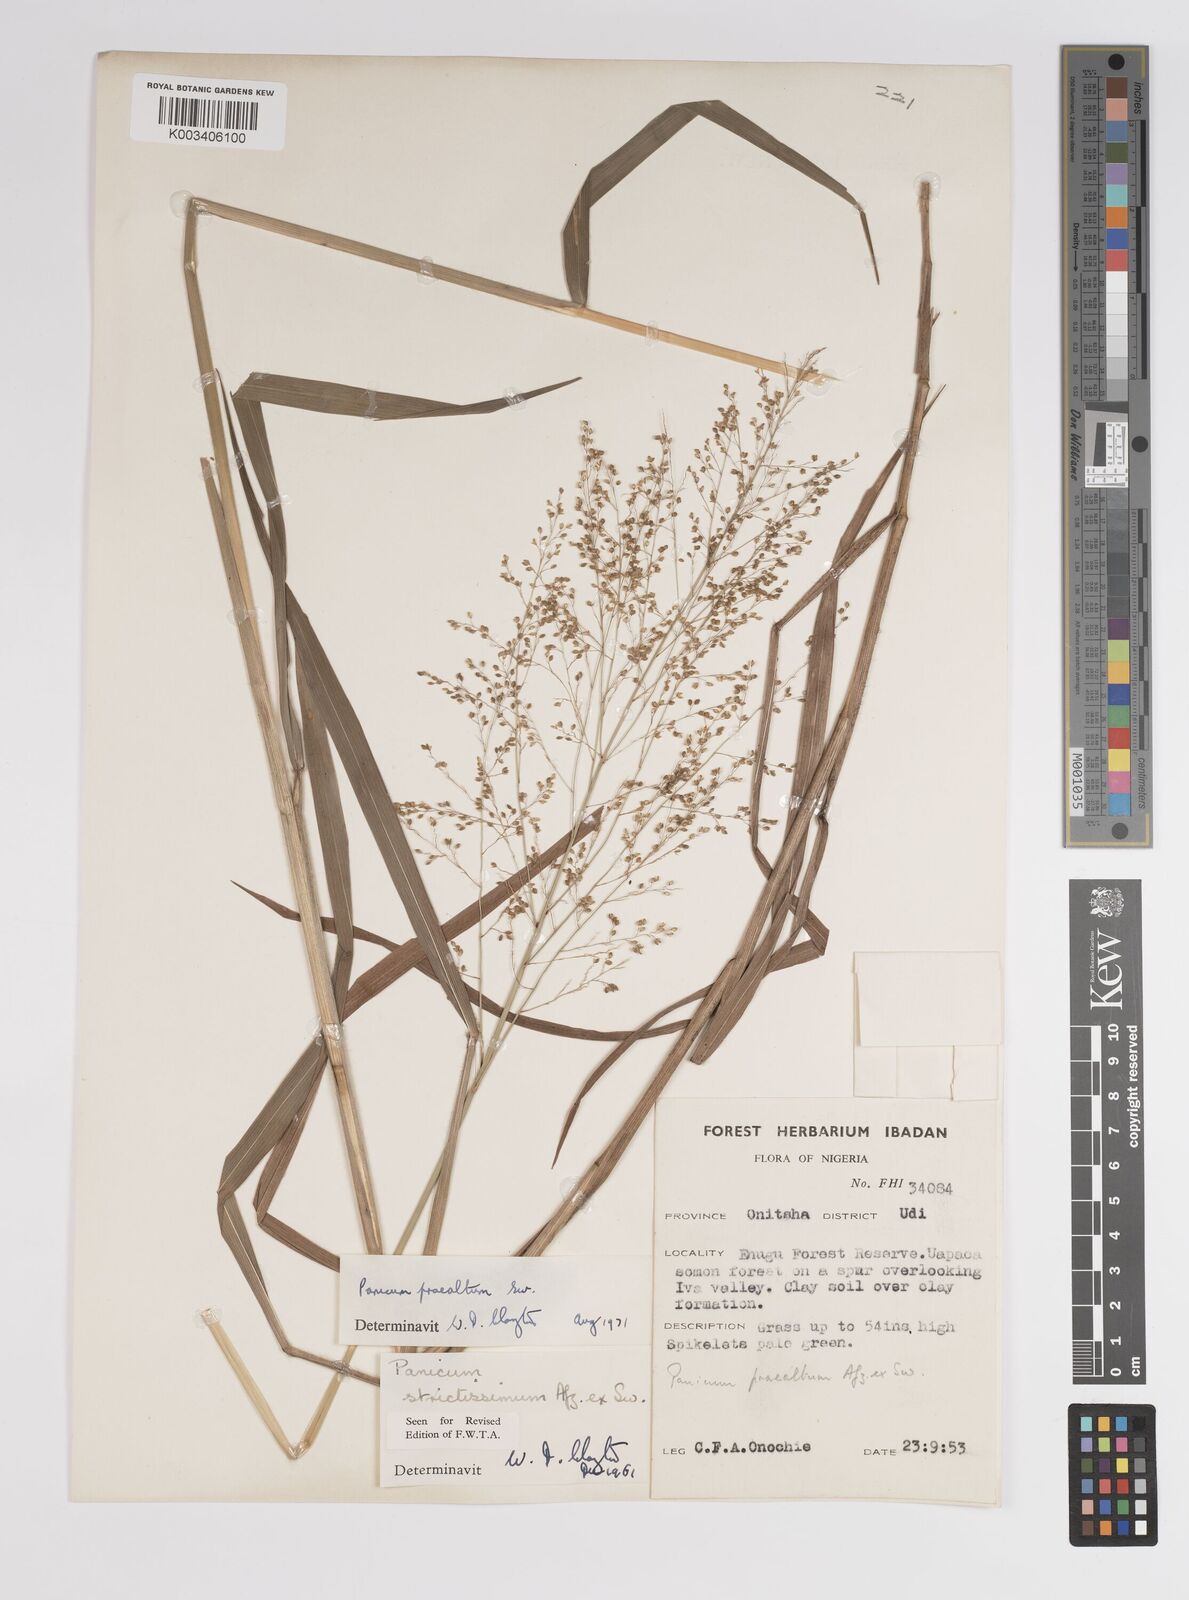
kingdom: Plantae
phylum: Tracheophyta
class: Liliopsida
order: Poales
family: Poaceae
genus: Trichanthecium
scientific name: Trichanthecium praealtum
